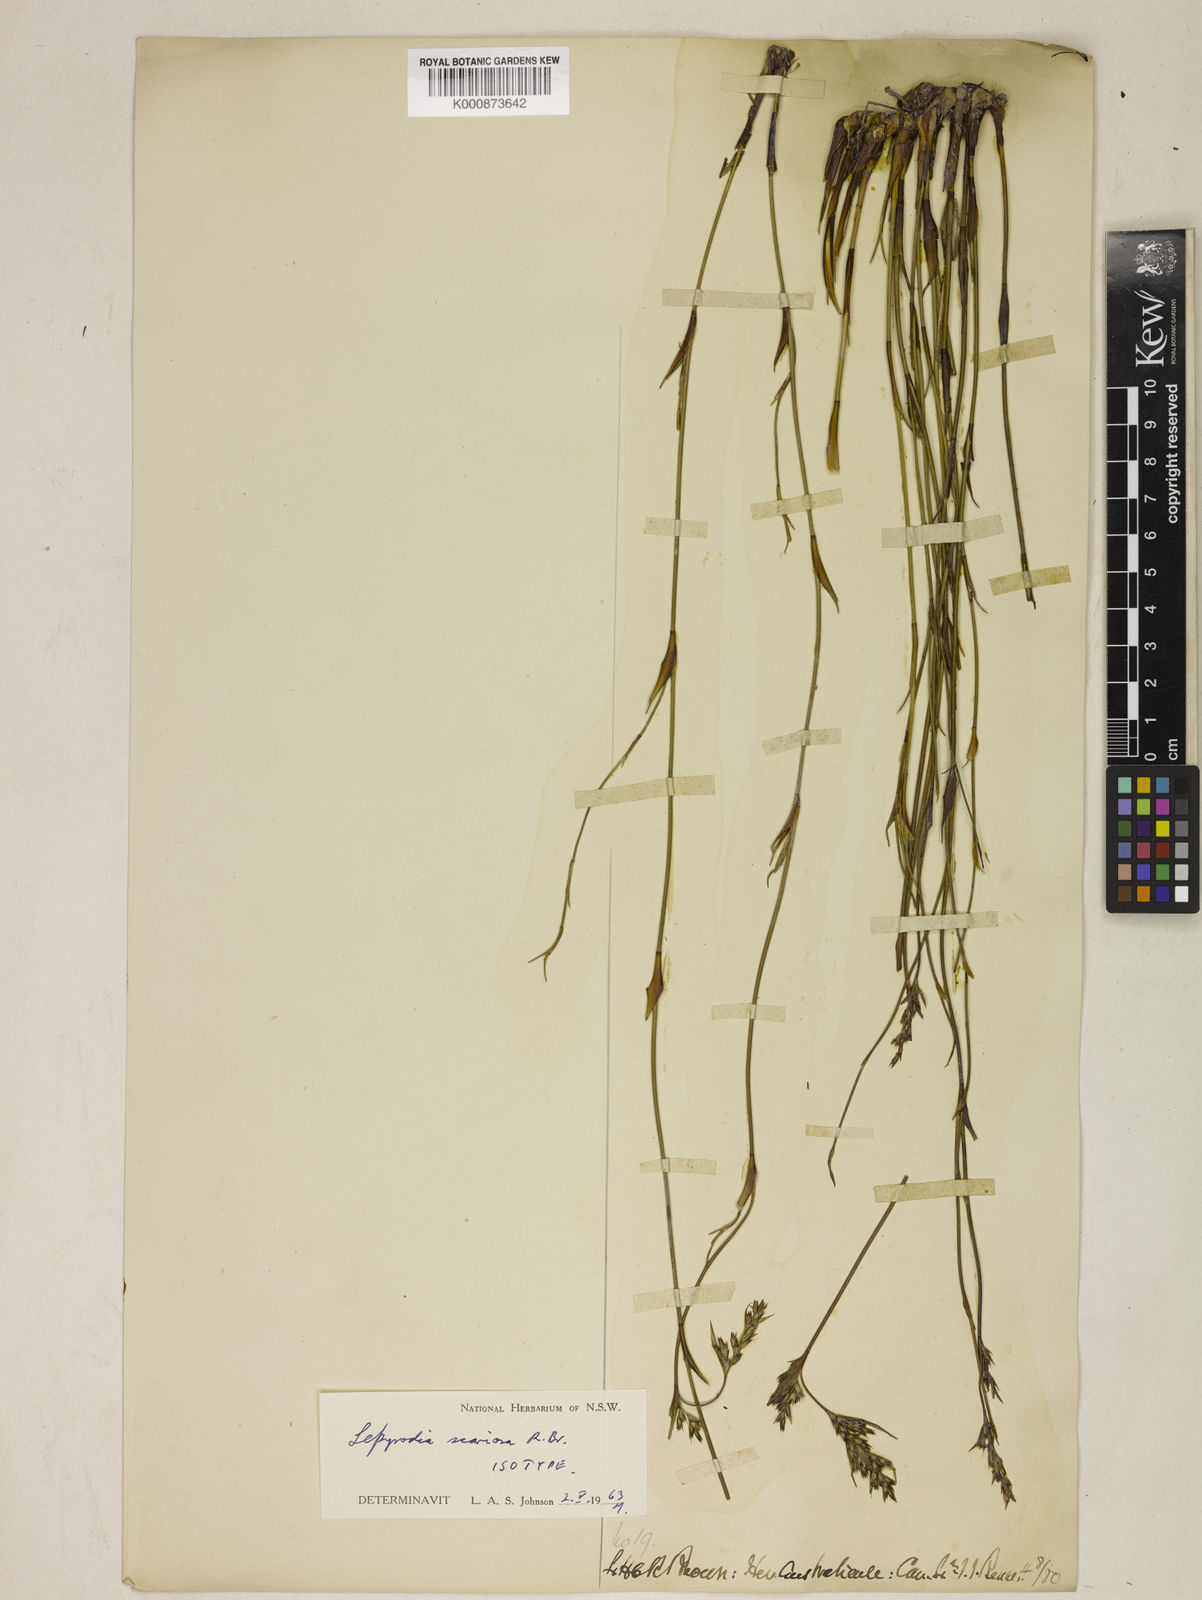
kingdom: Plantae
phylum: Tracheophyta
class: Liliopsida
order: Poales
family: Restionaceae
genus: Lepyrodia
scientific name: Lepyrodia scariosa
